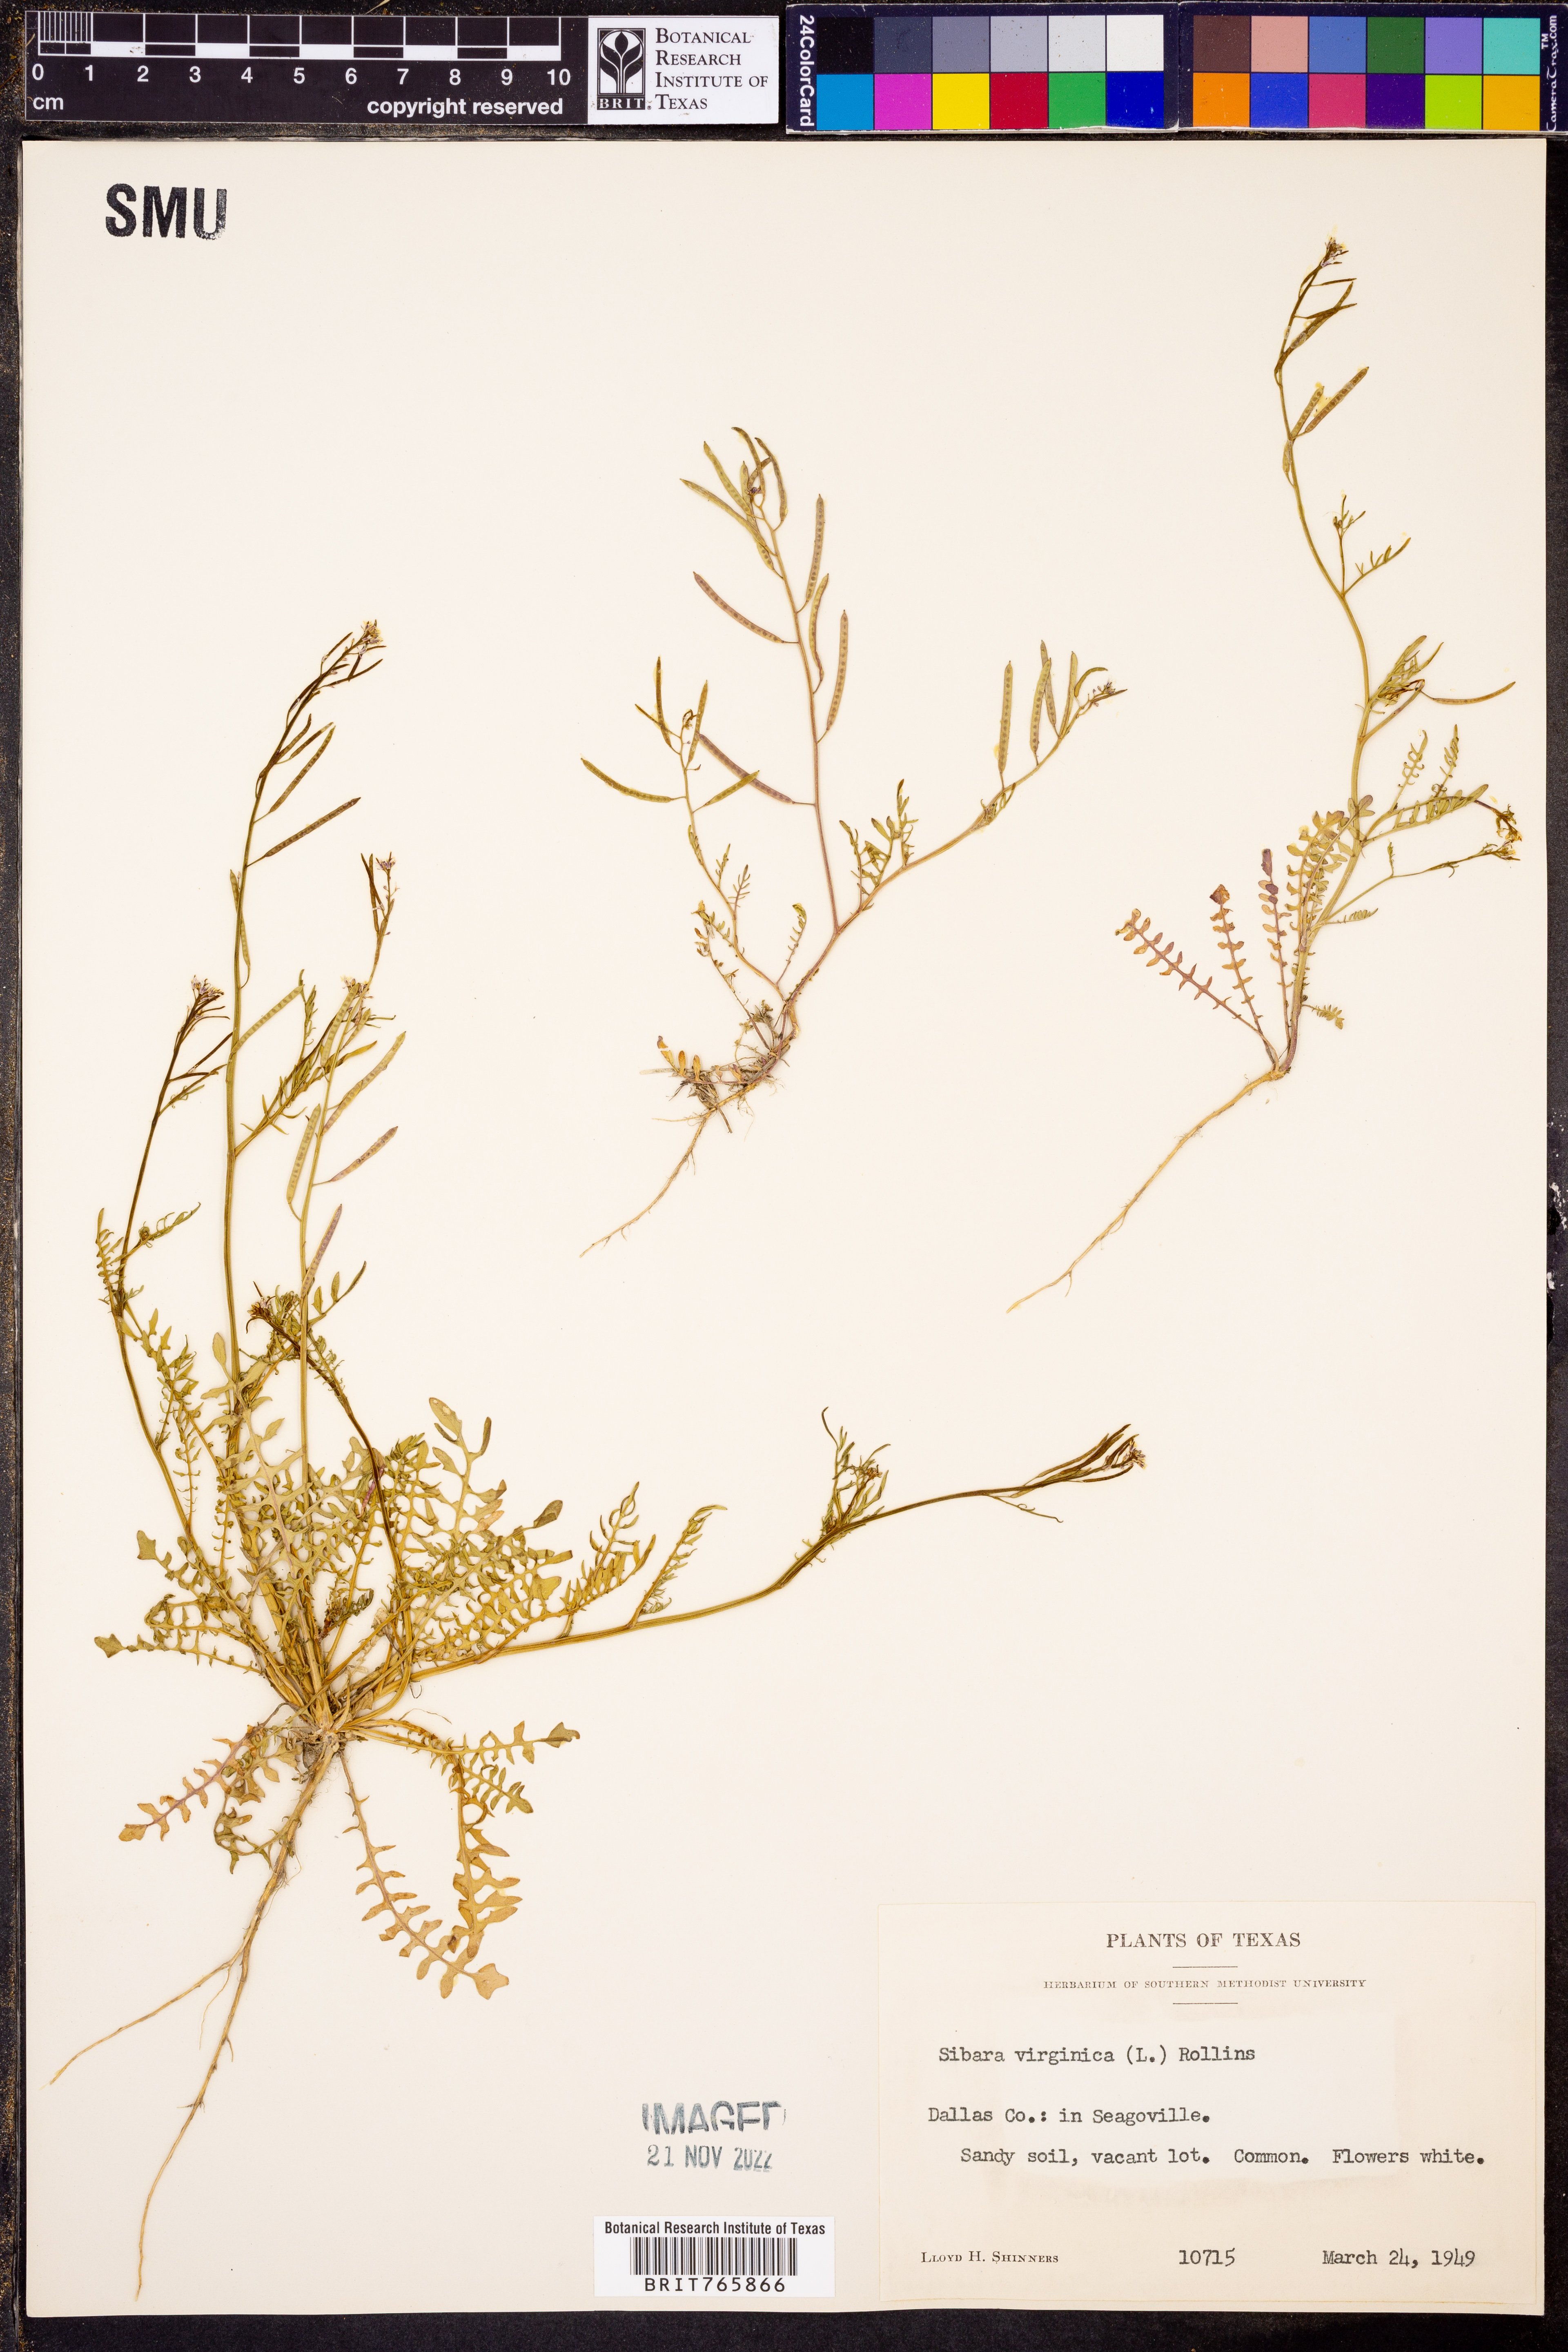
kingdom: Plantae
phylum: Tracheophyta
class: Magnoliopsida
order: Brassicales
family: Brassicaceae
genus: Planodes
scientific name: Planodes virginicum
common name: Virginia cress
